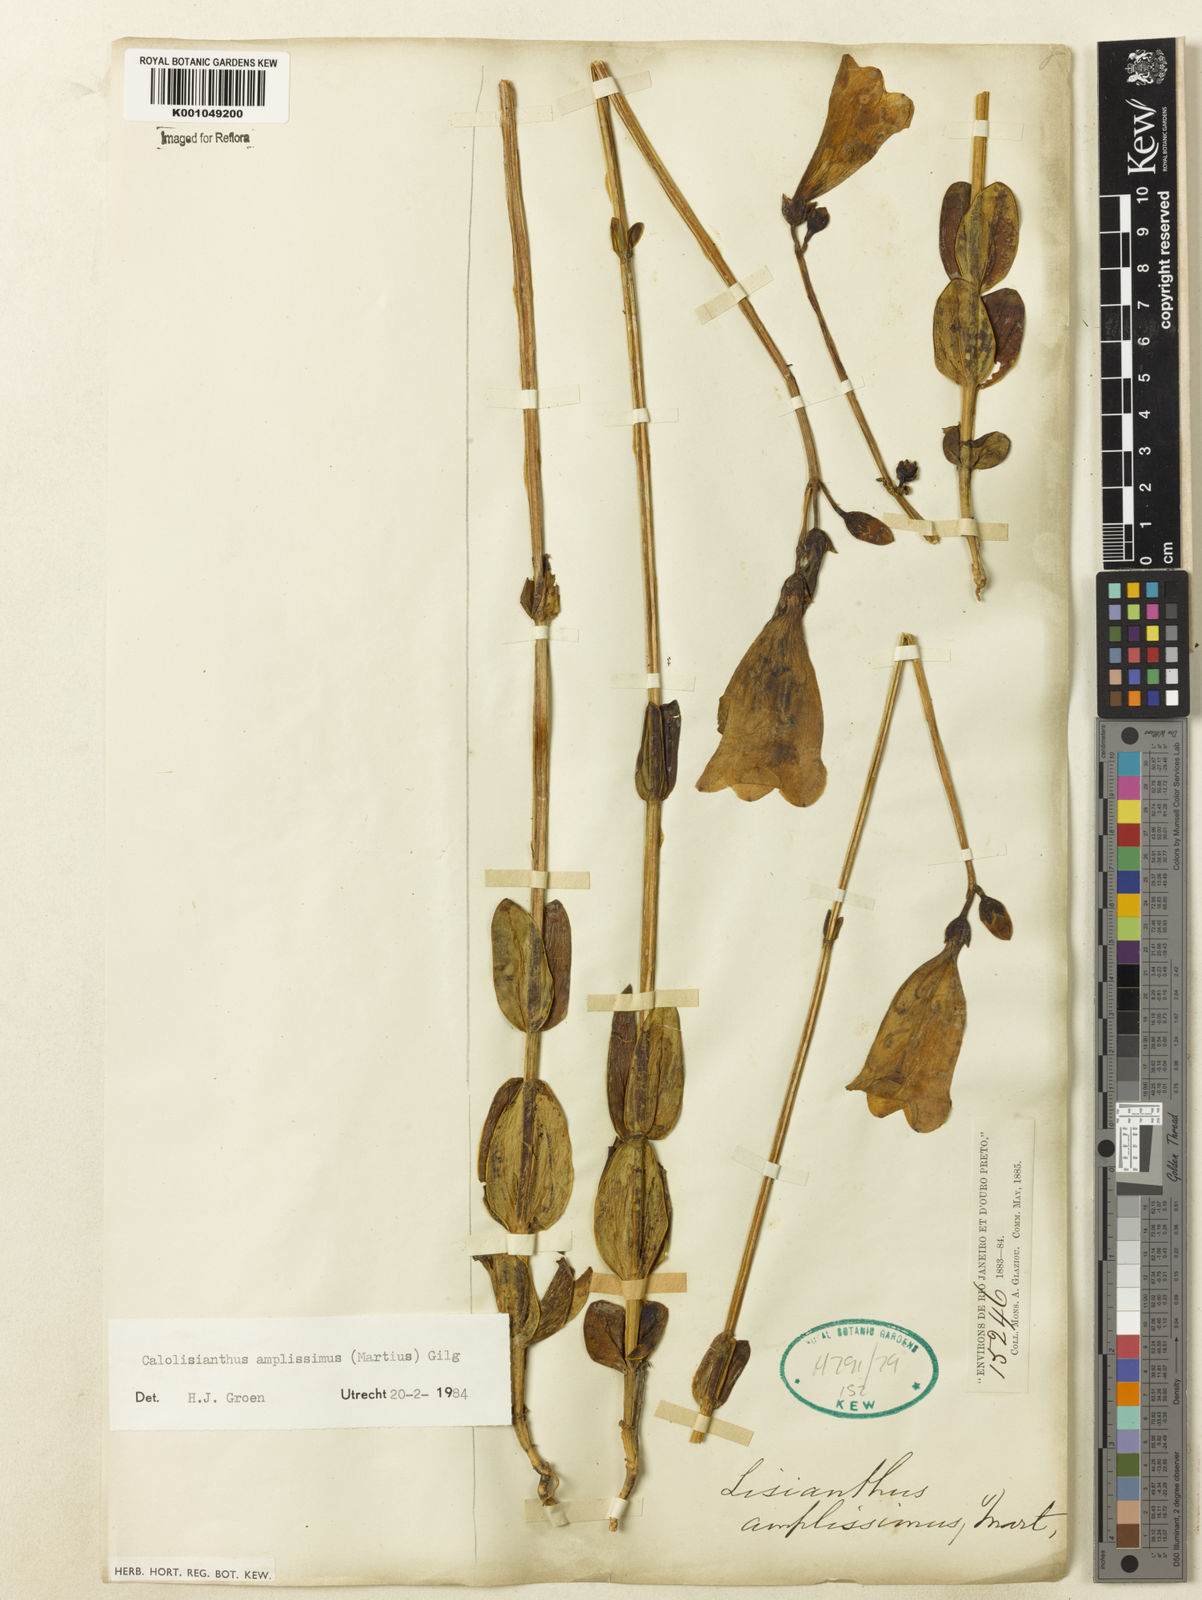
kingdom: Plantae
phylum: Tracheophyta
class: Magnoliopsida
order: Gentianales
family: Gentianaceae
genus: Calolisianthus
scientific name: Calolisianthus amplissimus
